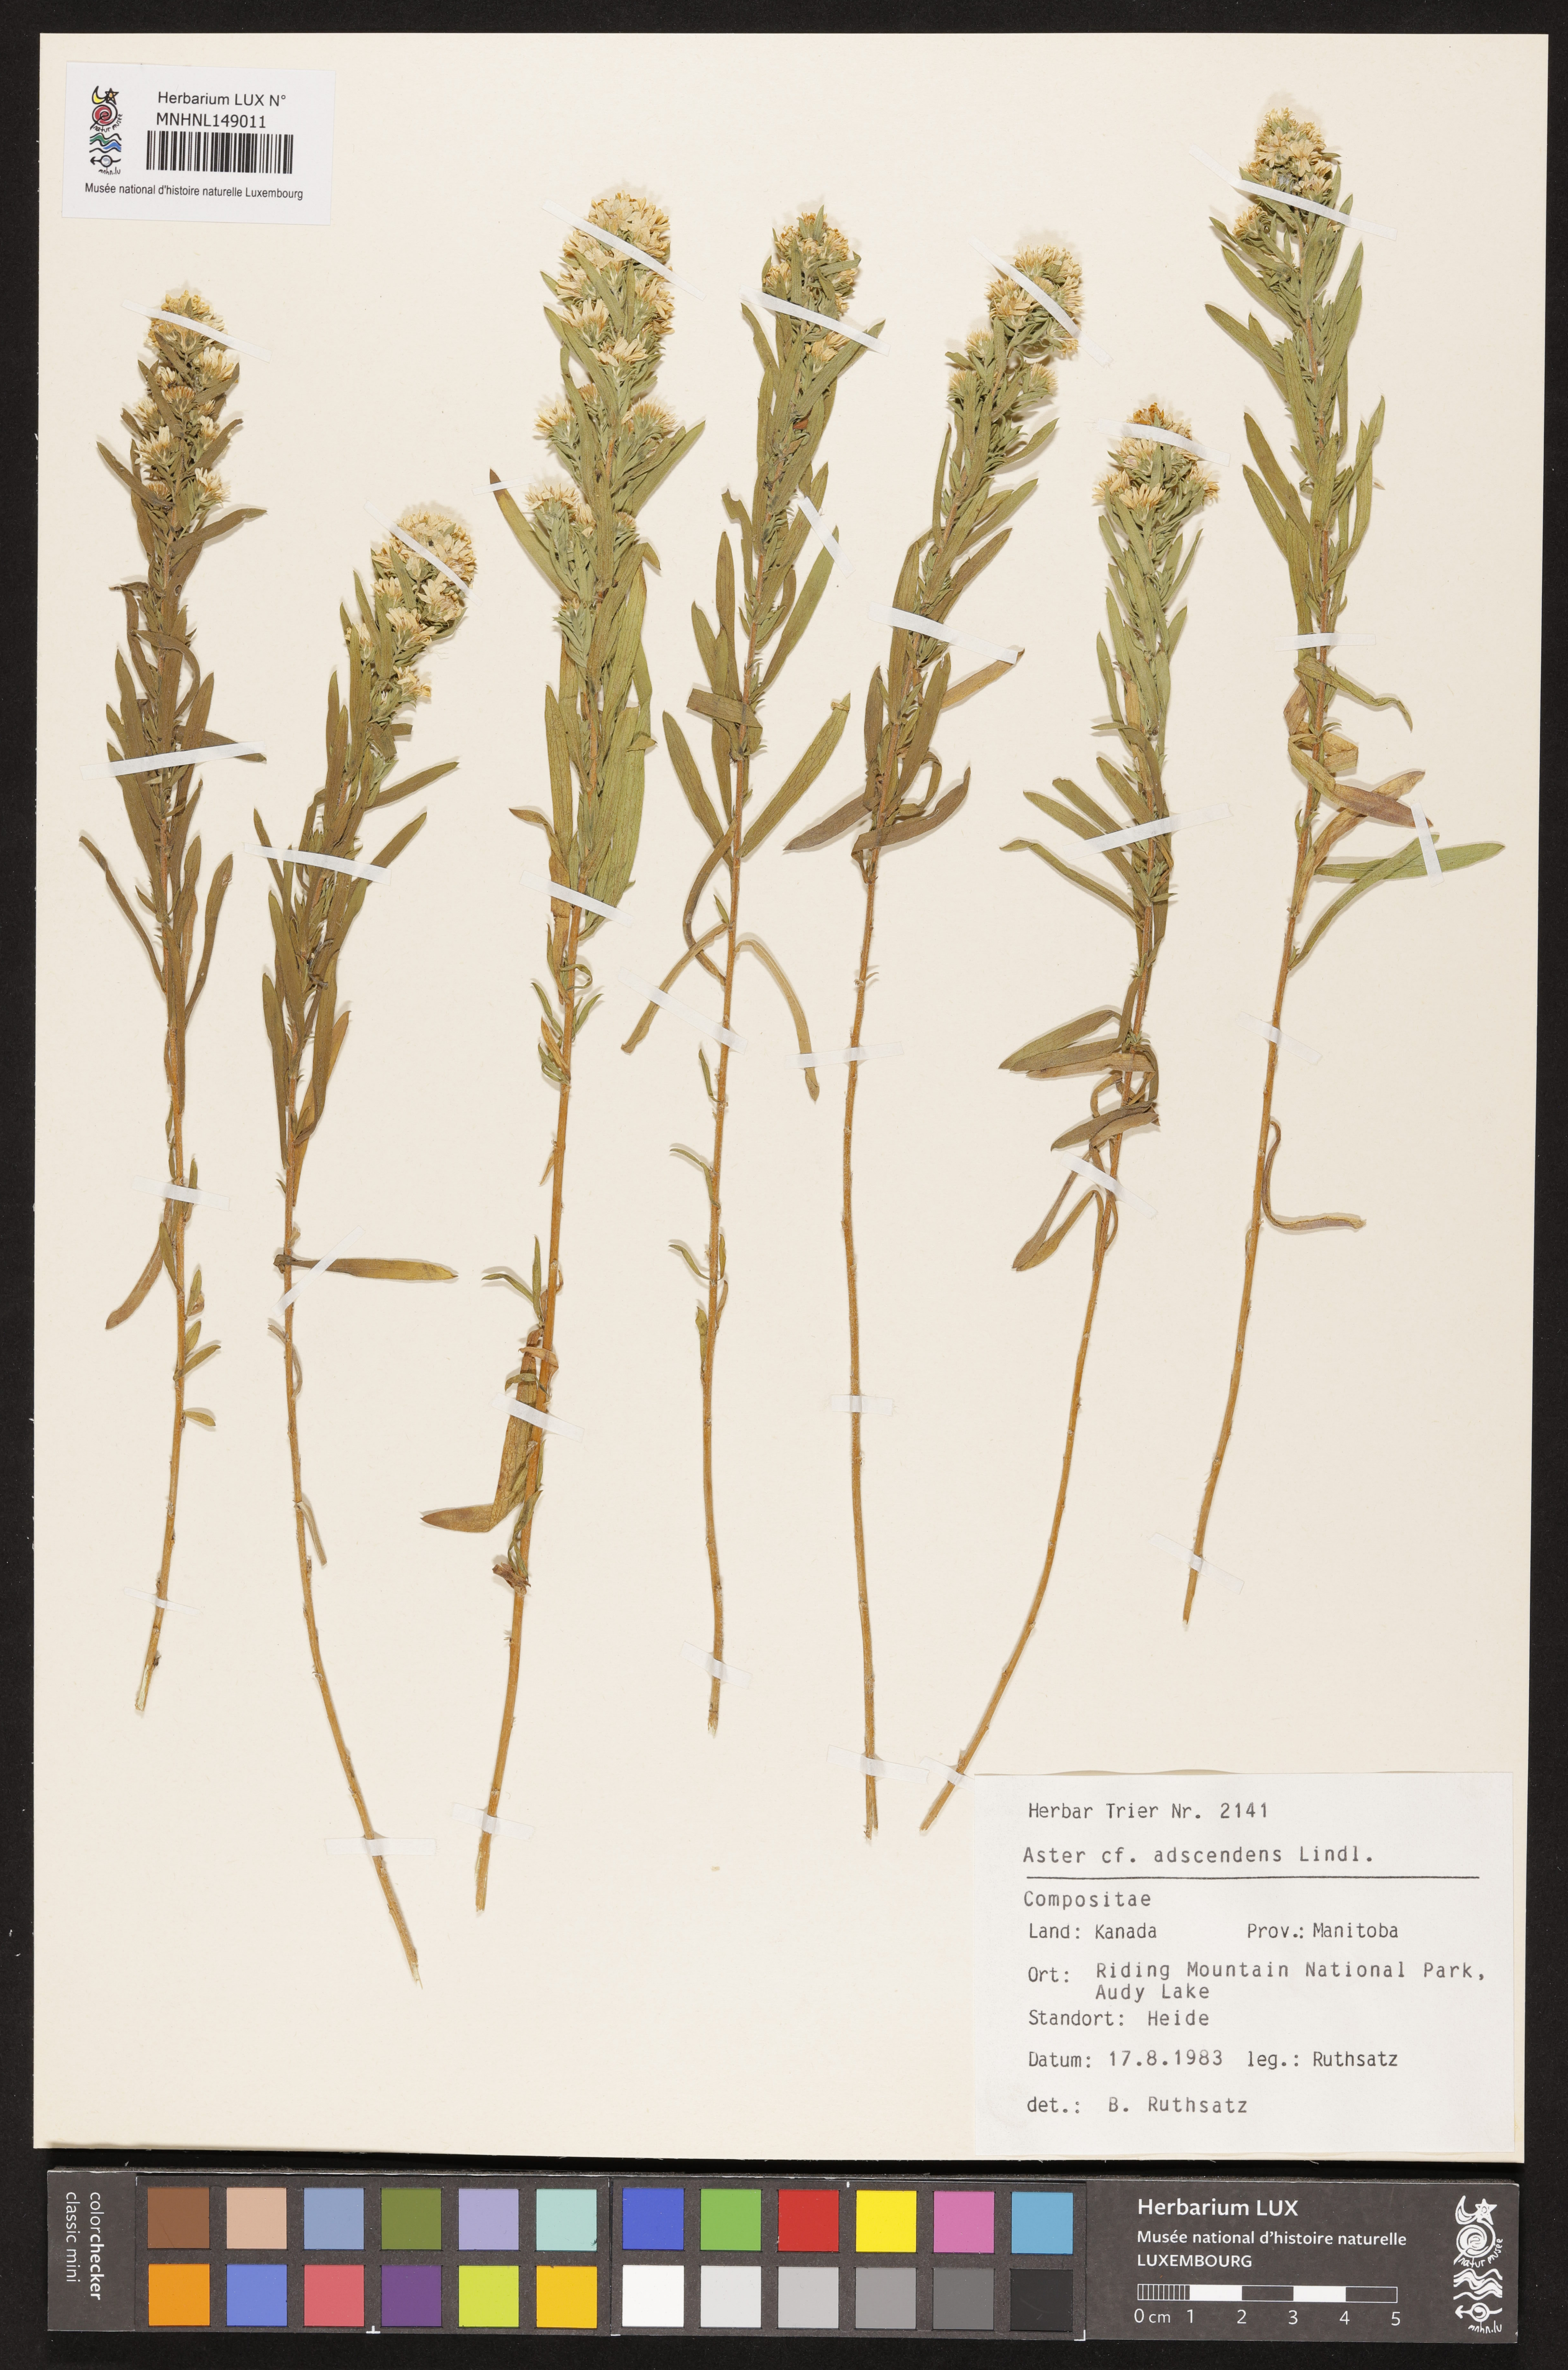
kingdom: Plantae
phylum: Tracheophyta
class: Magnoliopsida
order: Asterales
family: Asteraceae
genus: Symphyotrichum
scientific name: Symphyotrichum ascendens
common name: Intermountain aster
